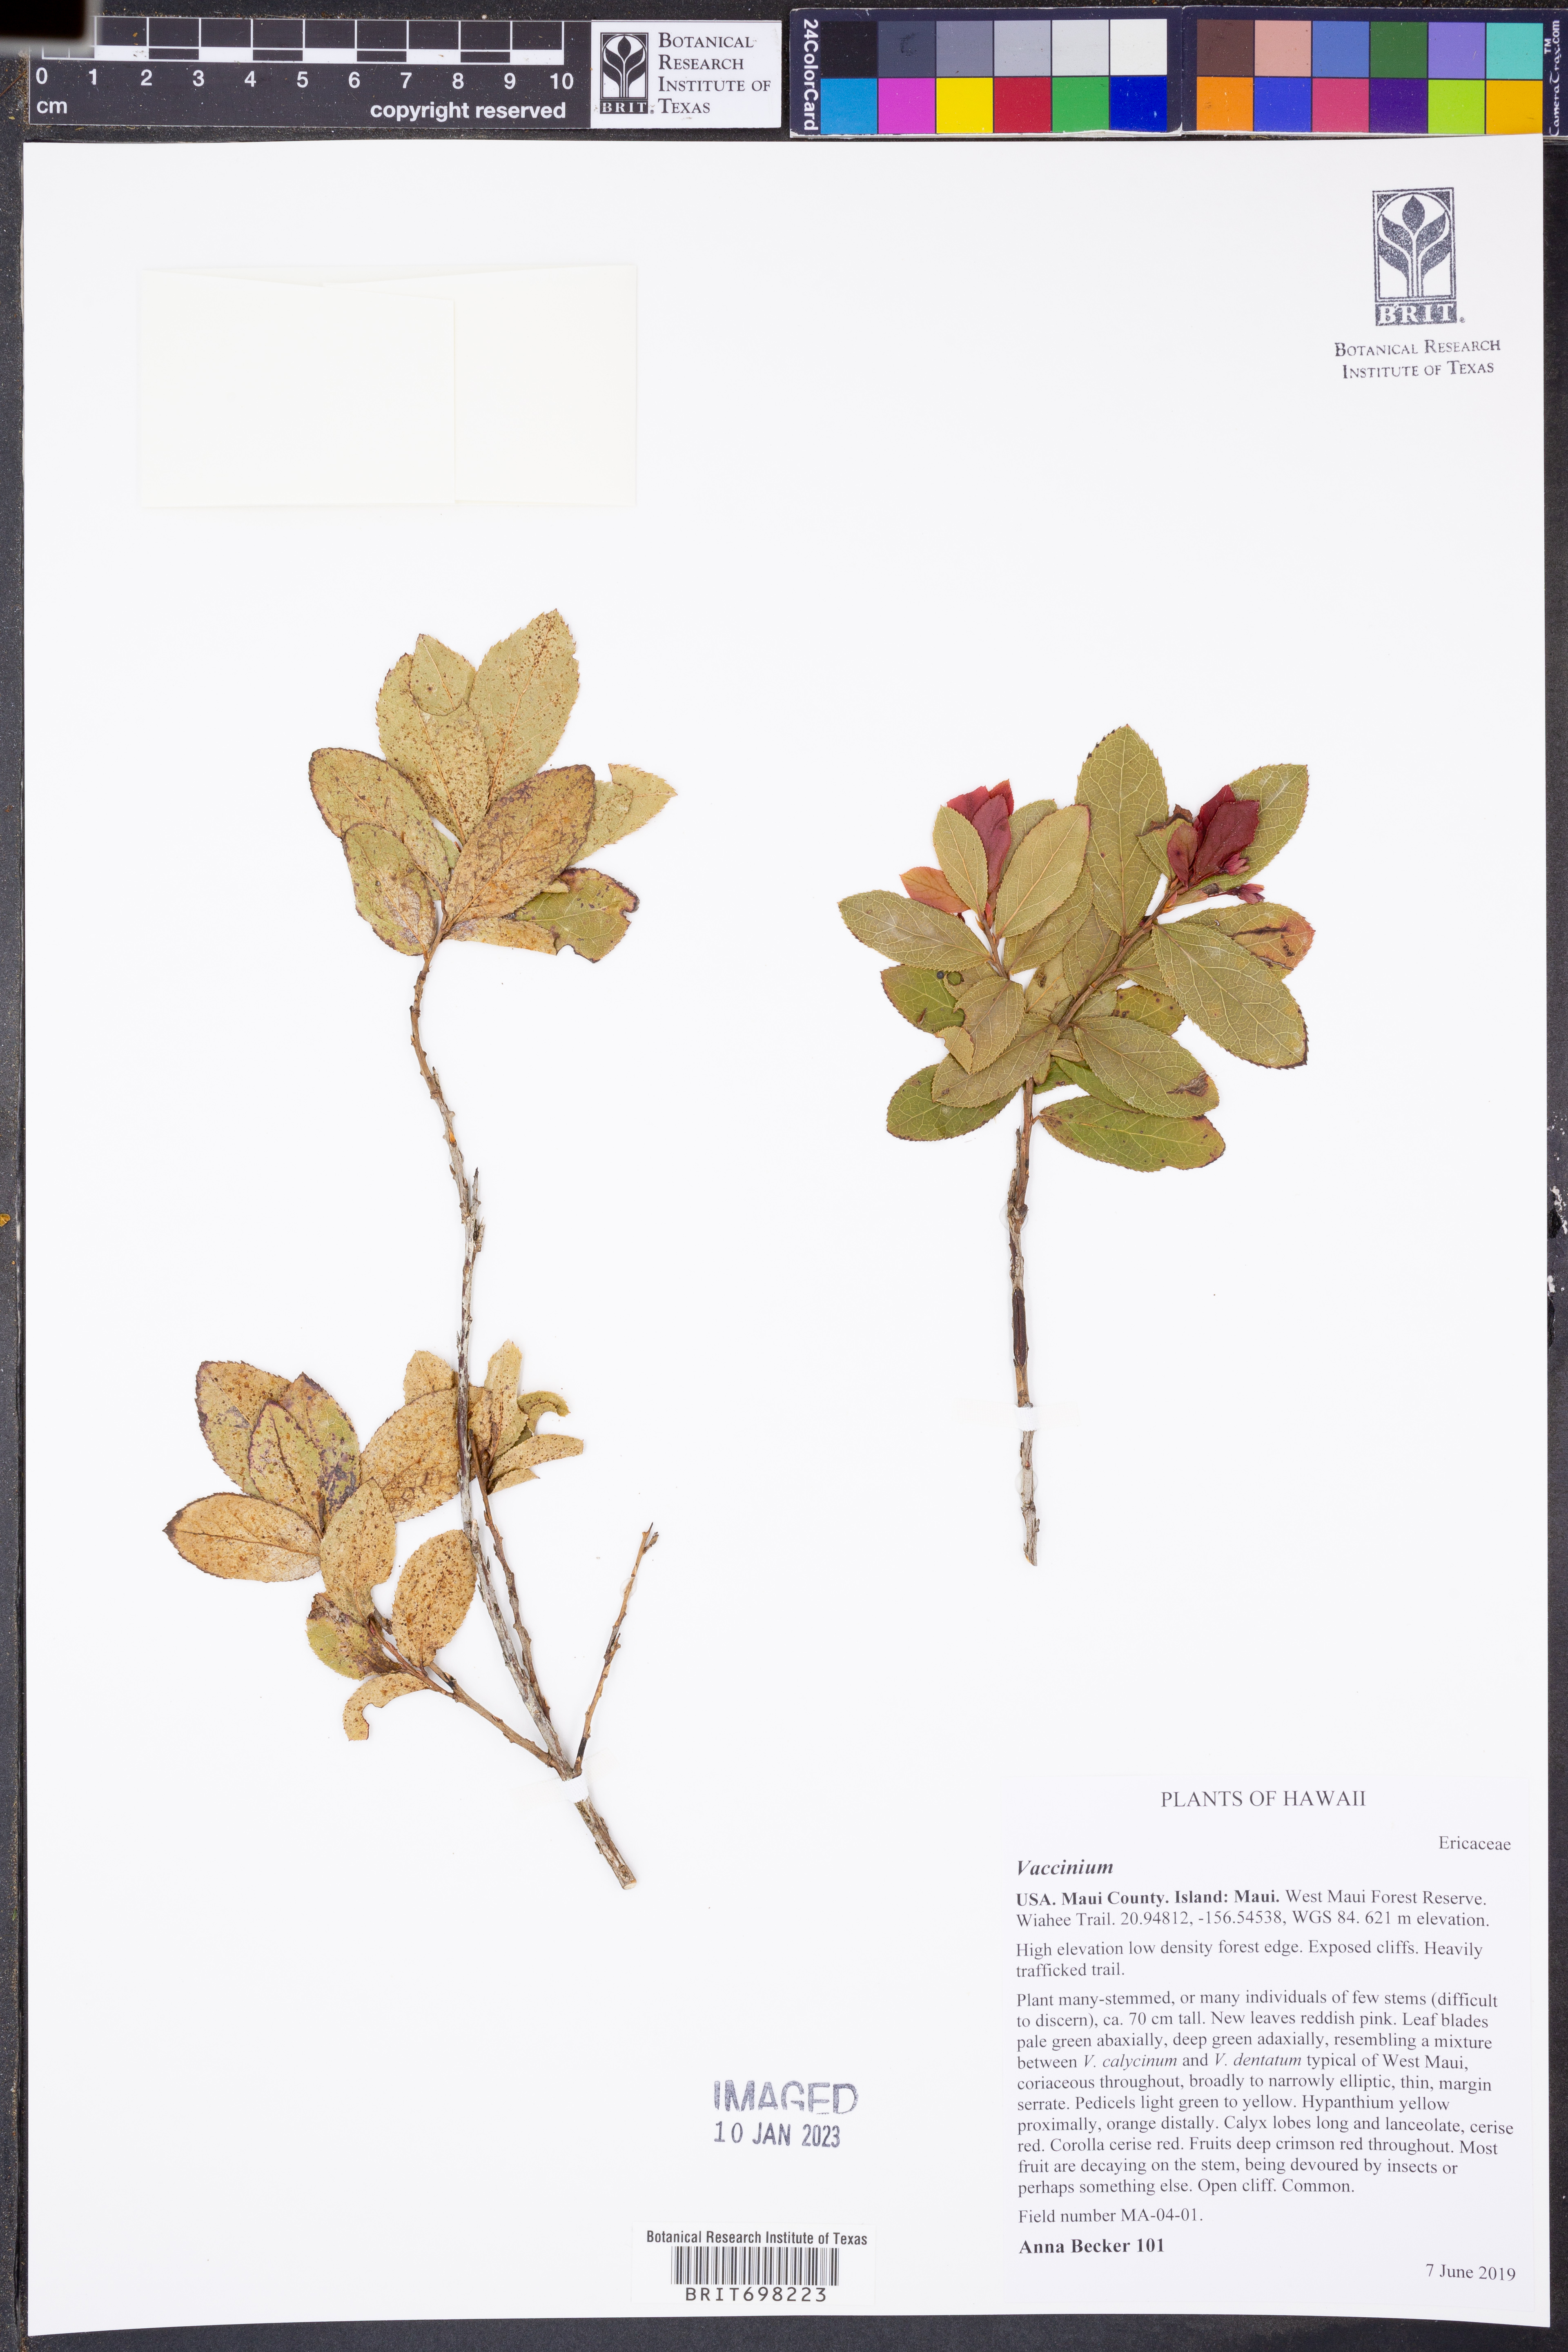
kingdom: Plantae
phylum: Tracheophyta
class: Magnoliopsida
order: Ericales
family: Ericaceae
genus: Vaccinium
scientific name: Vaccinium
